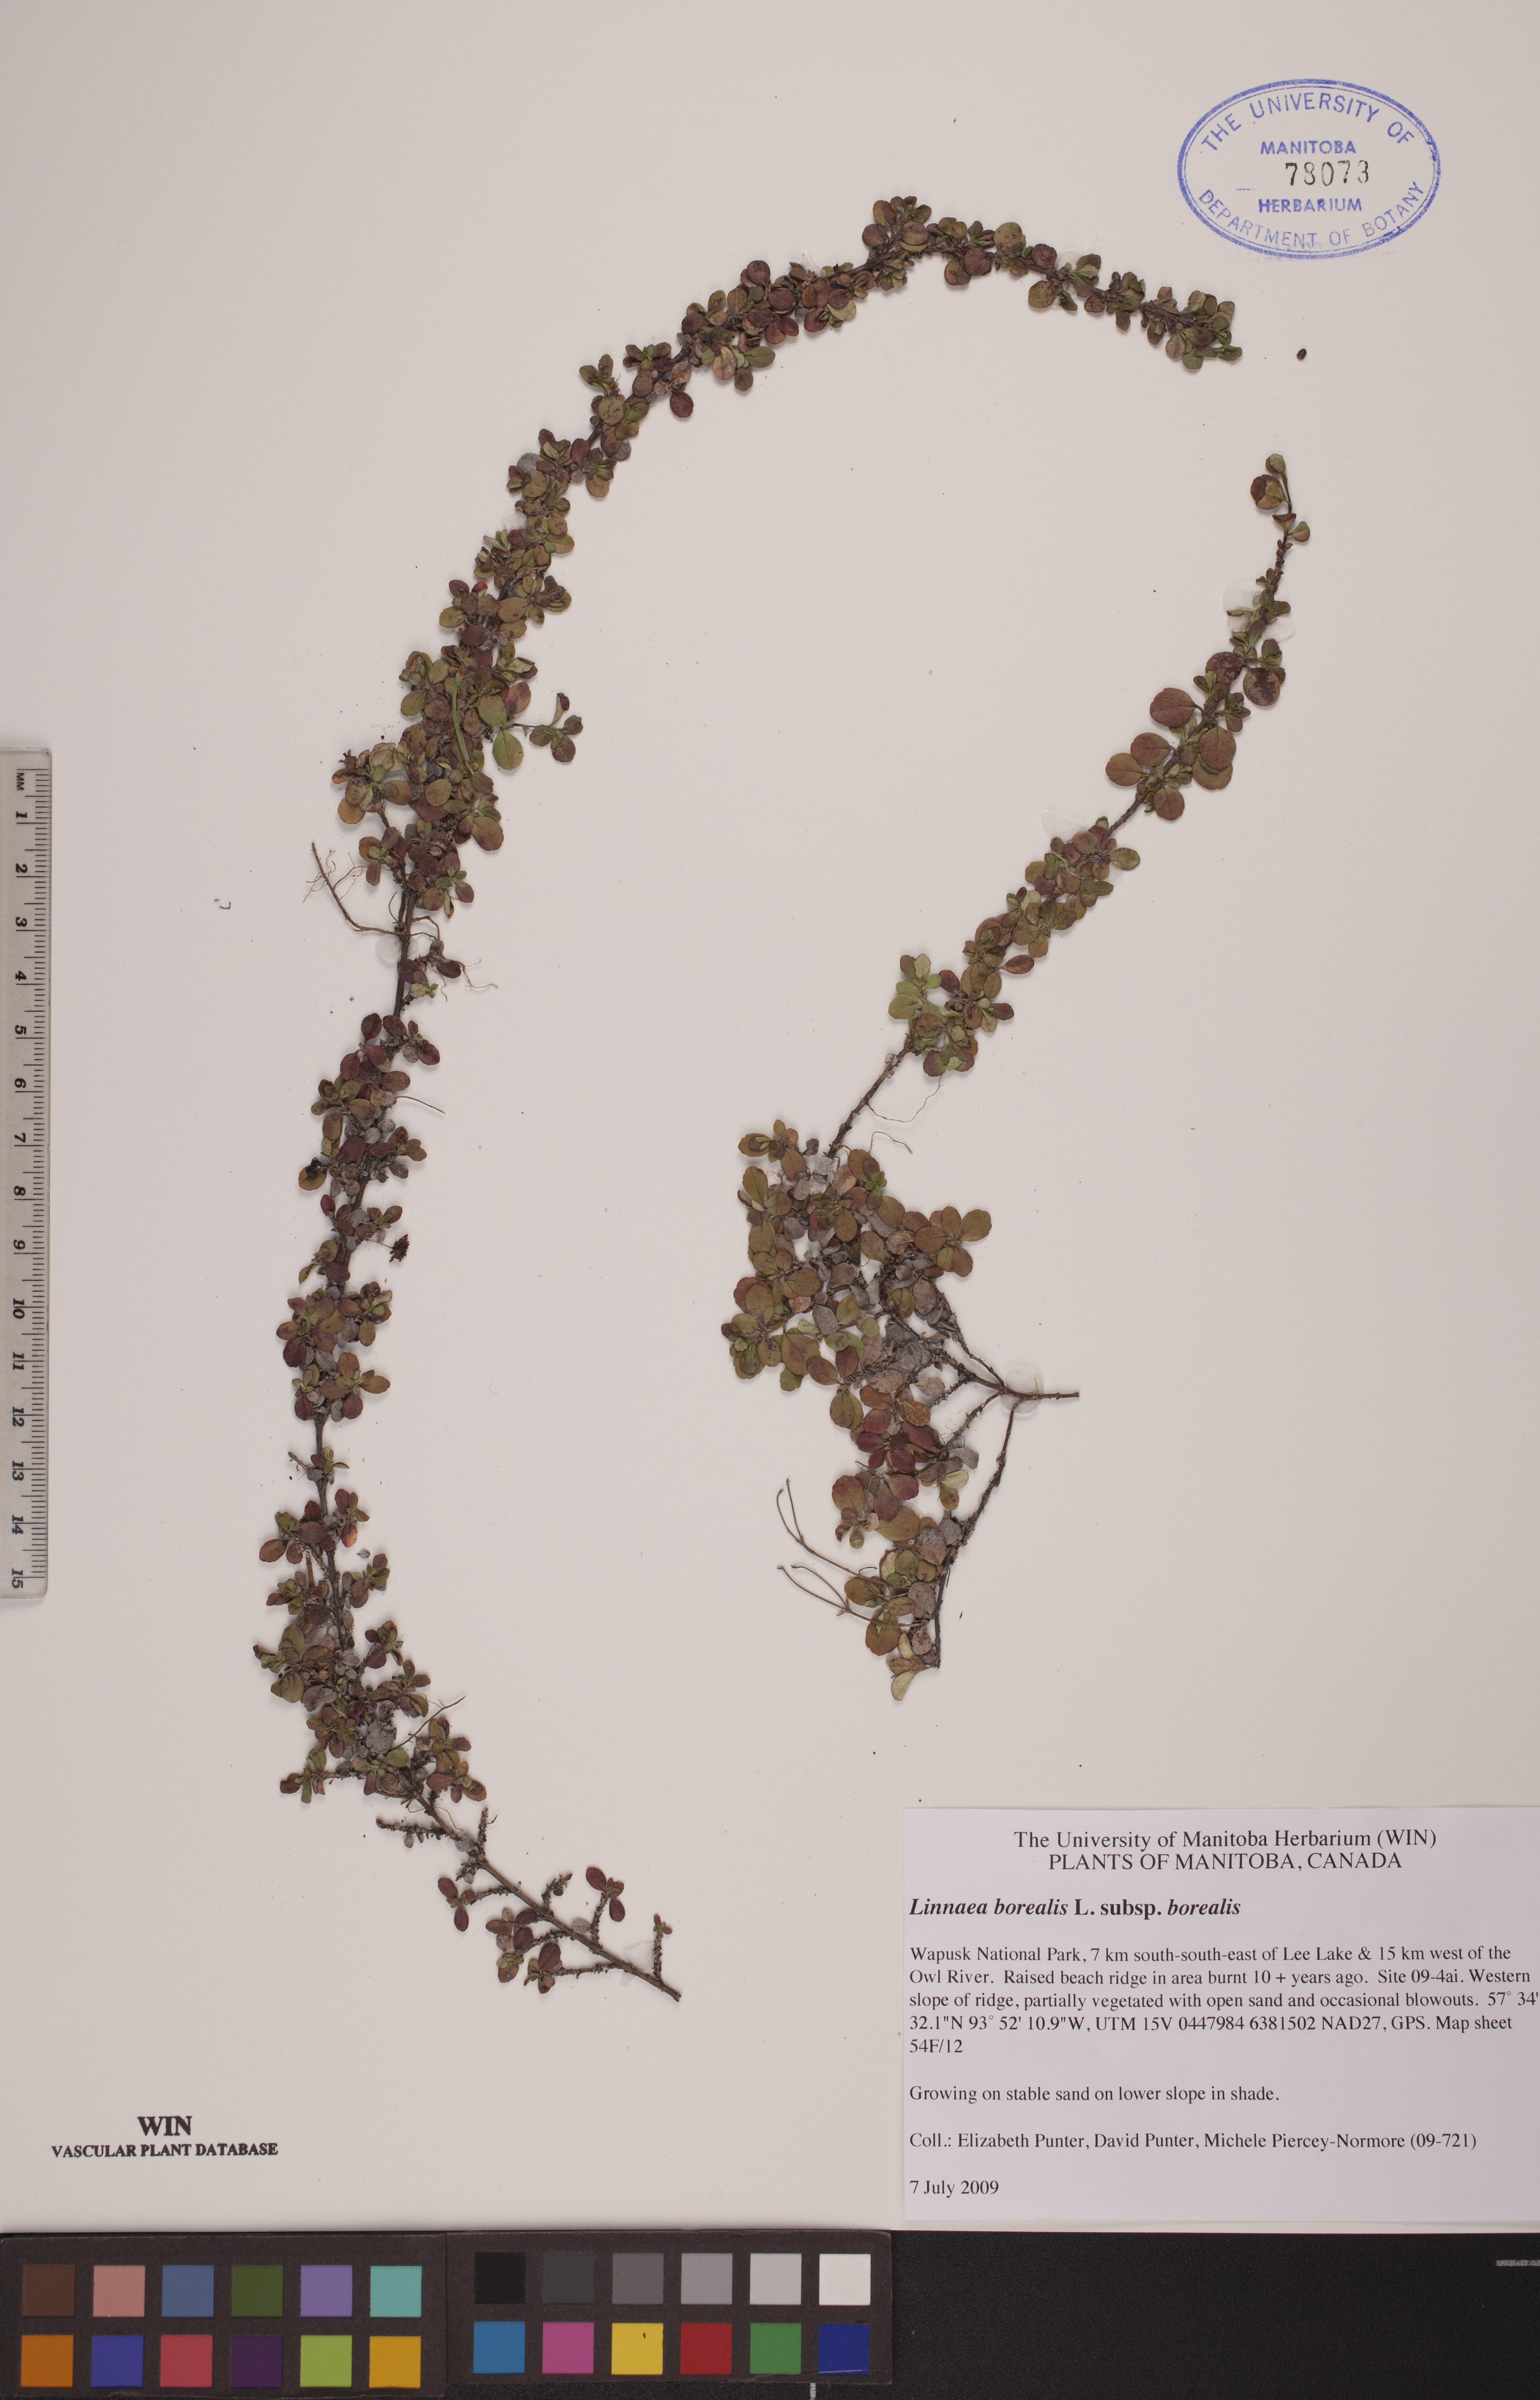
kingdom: Plantae
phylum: Tracheophyta
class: Magnoliopsida
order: Dipsacales
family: Caprifoliaceae
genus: Linnaea
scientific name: Linnaea borealis
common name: Twinflower
